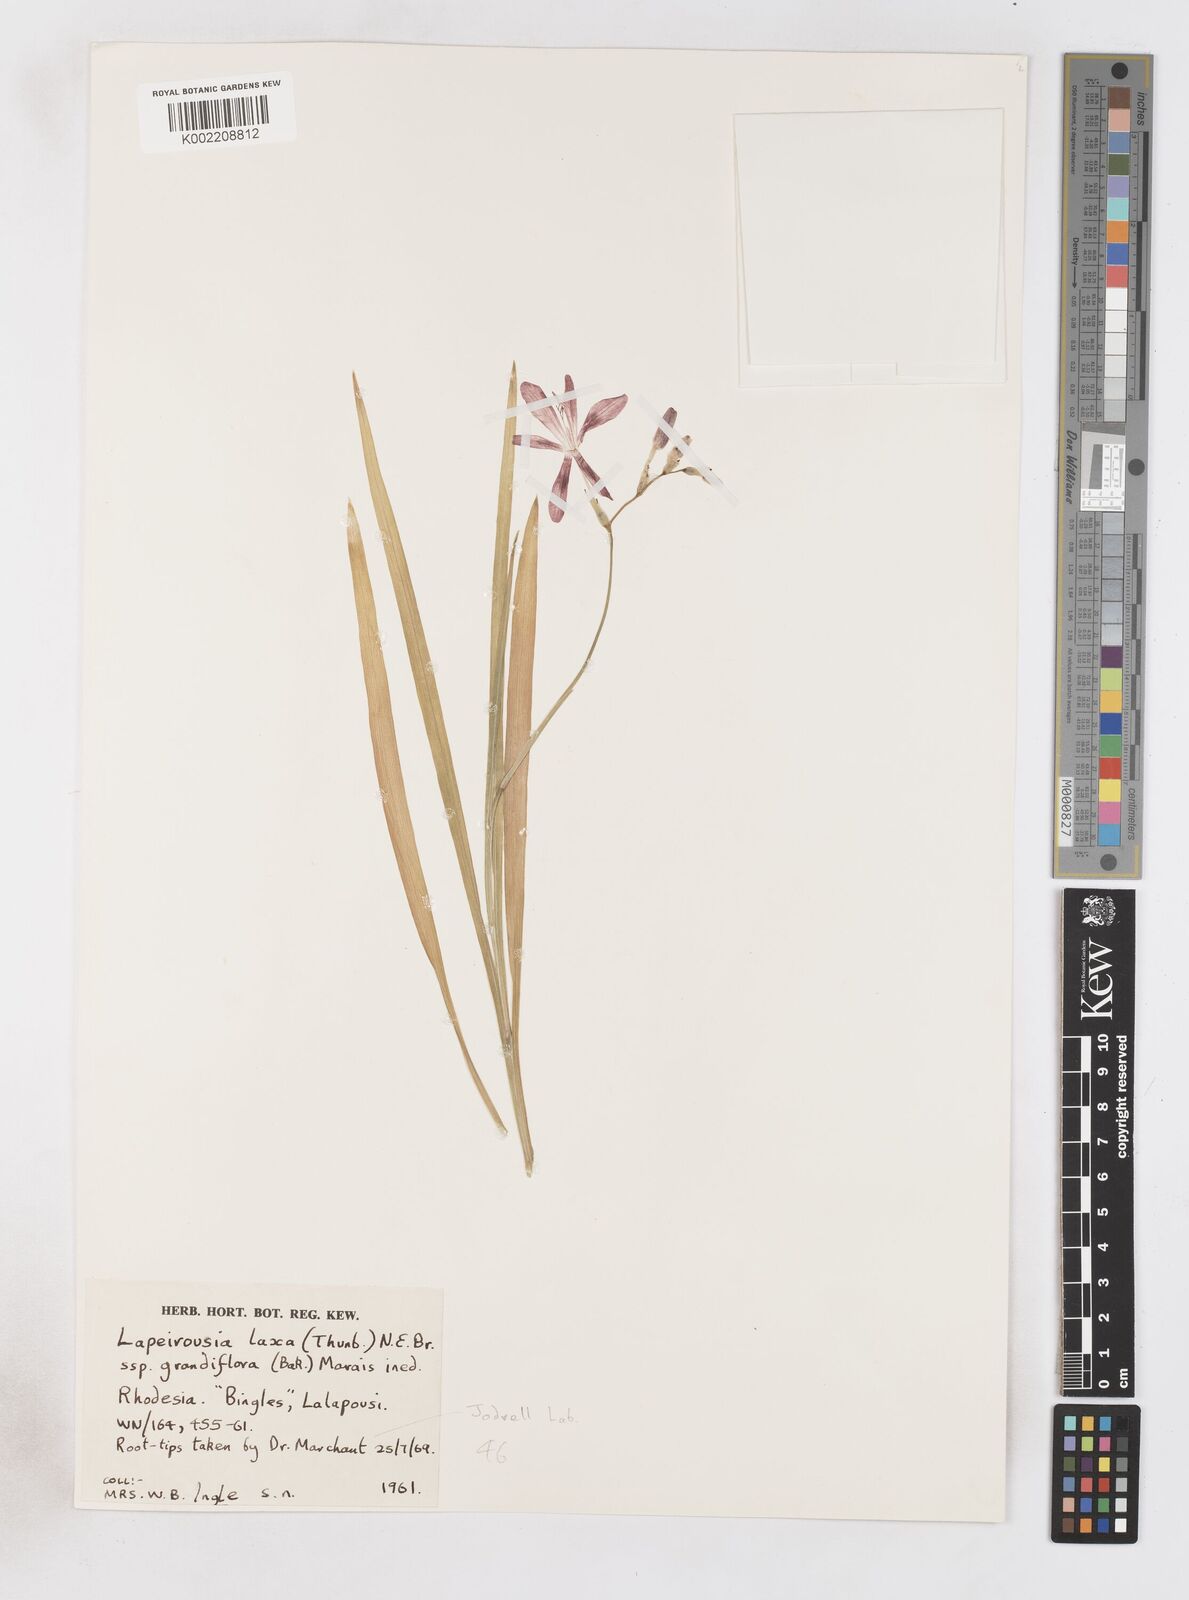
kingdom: Plantae
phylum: Tracheophyta
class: Liliopsida
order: Asparagales
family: Iridaceae
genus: Freesia
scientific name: Freesia grandiflora
